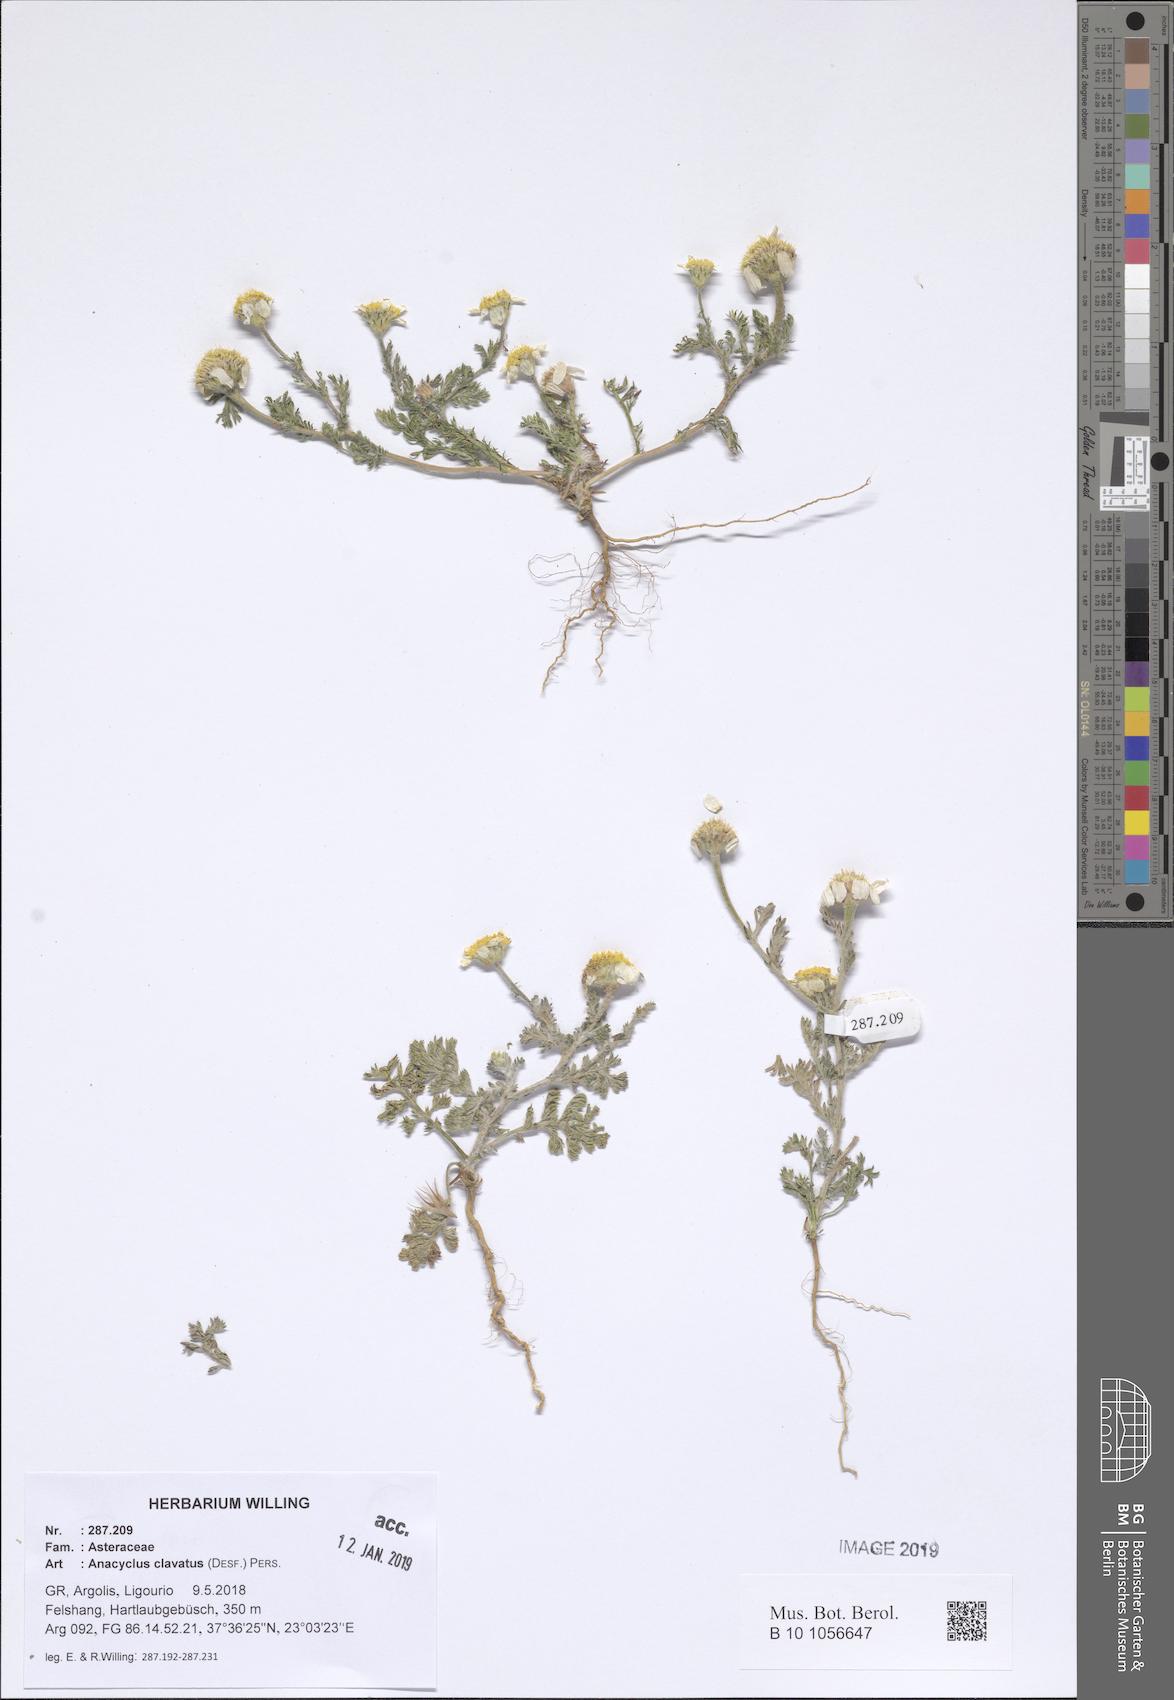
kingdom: Plantae
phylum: Tracheophyta
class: Magnoliopsida
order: Asterales
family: Asteraceae
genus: Anacyclus
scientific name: Anacyclus clavatus
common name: Whitebuttons
